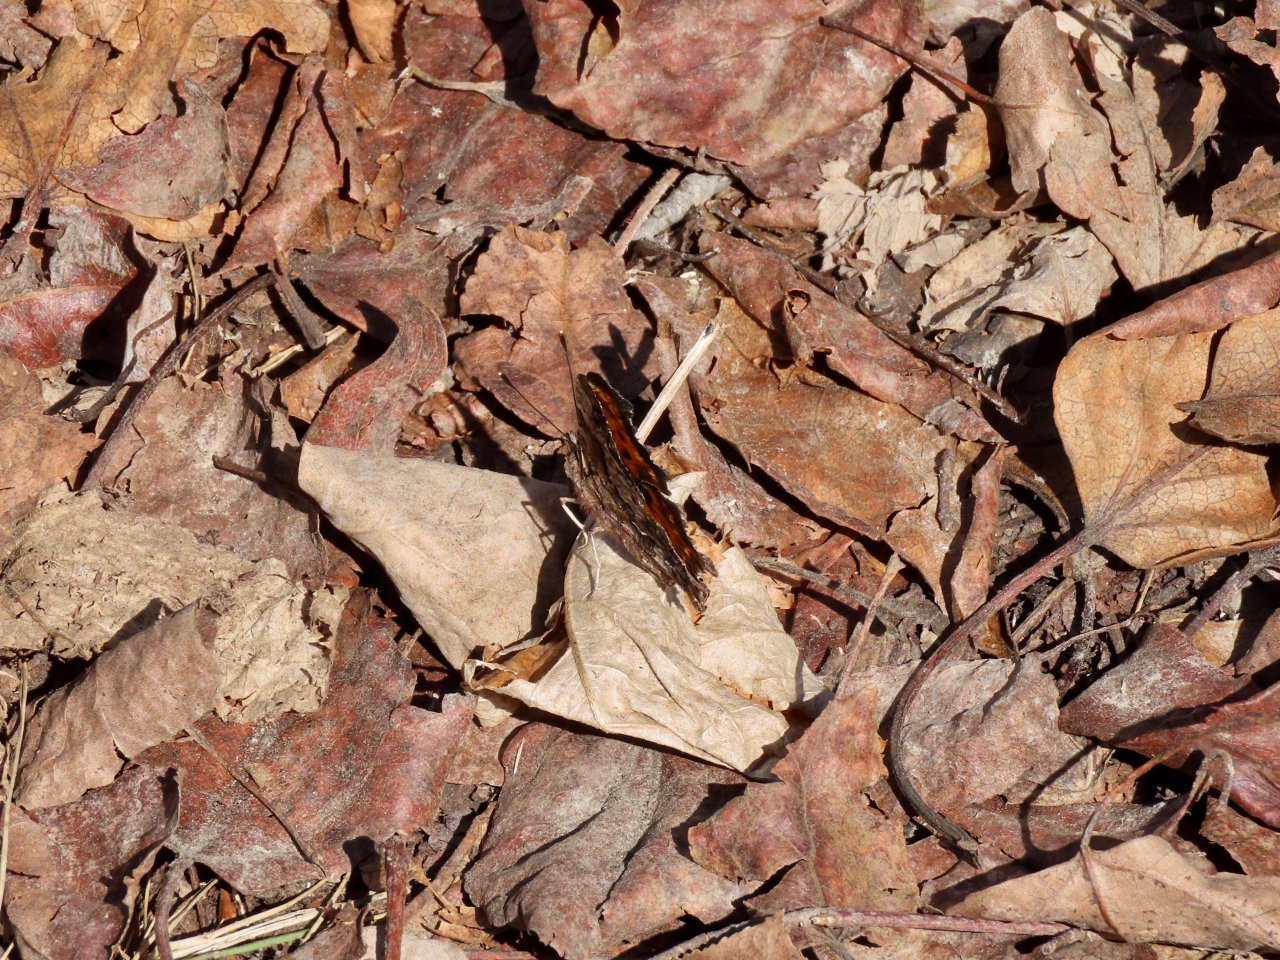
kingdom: Animalia
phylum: Arthropoda
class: Insecta
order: Lepidoptera
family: Nymphalidae
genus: Polygonia
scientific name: Polygonia gracilis
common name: Hoary Comma
